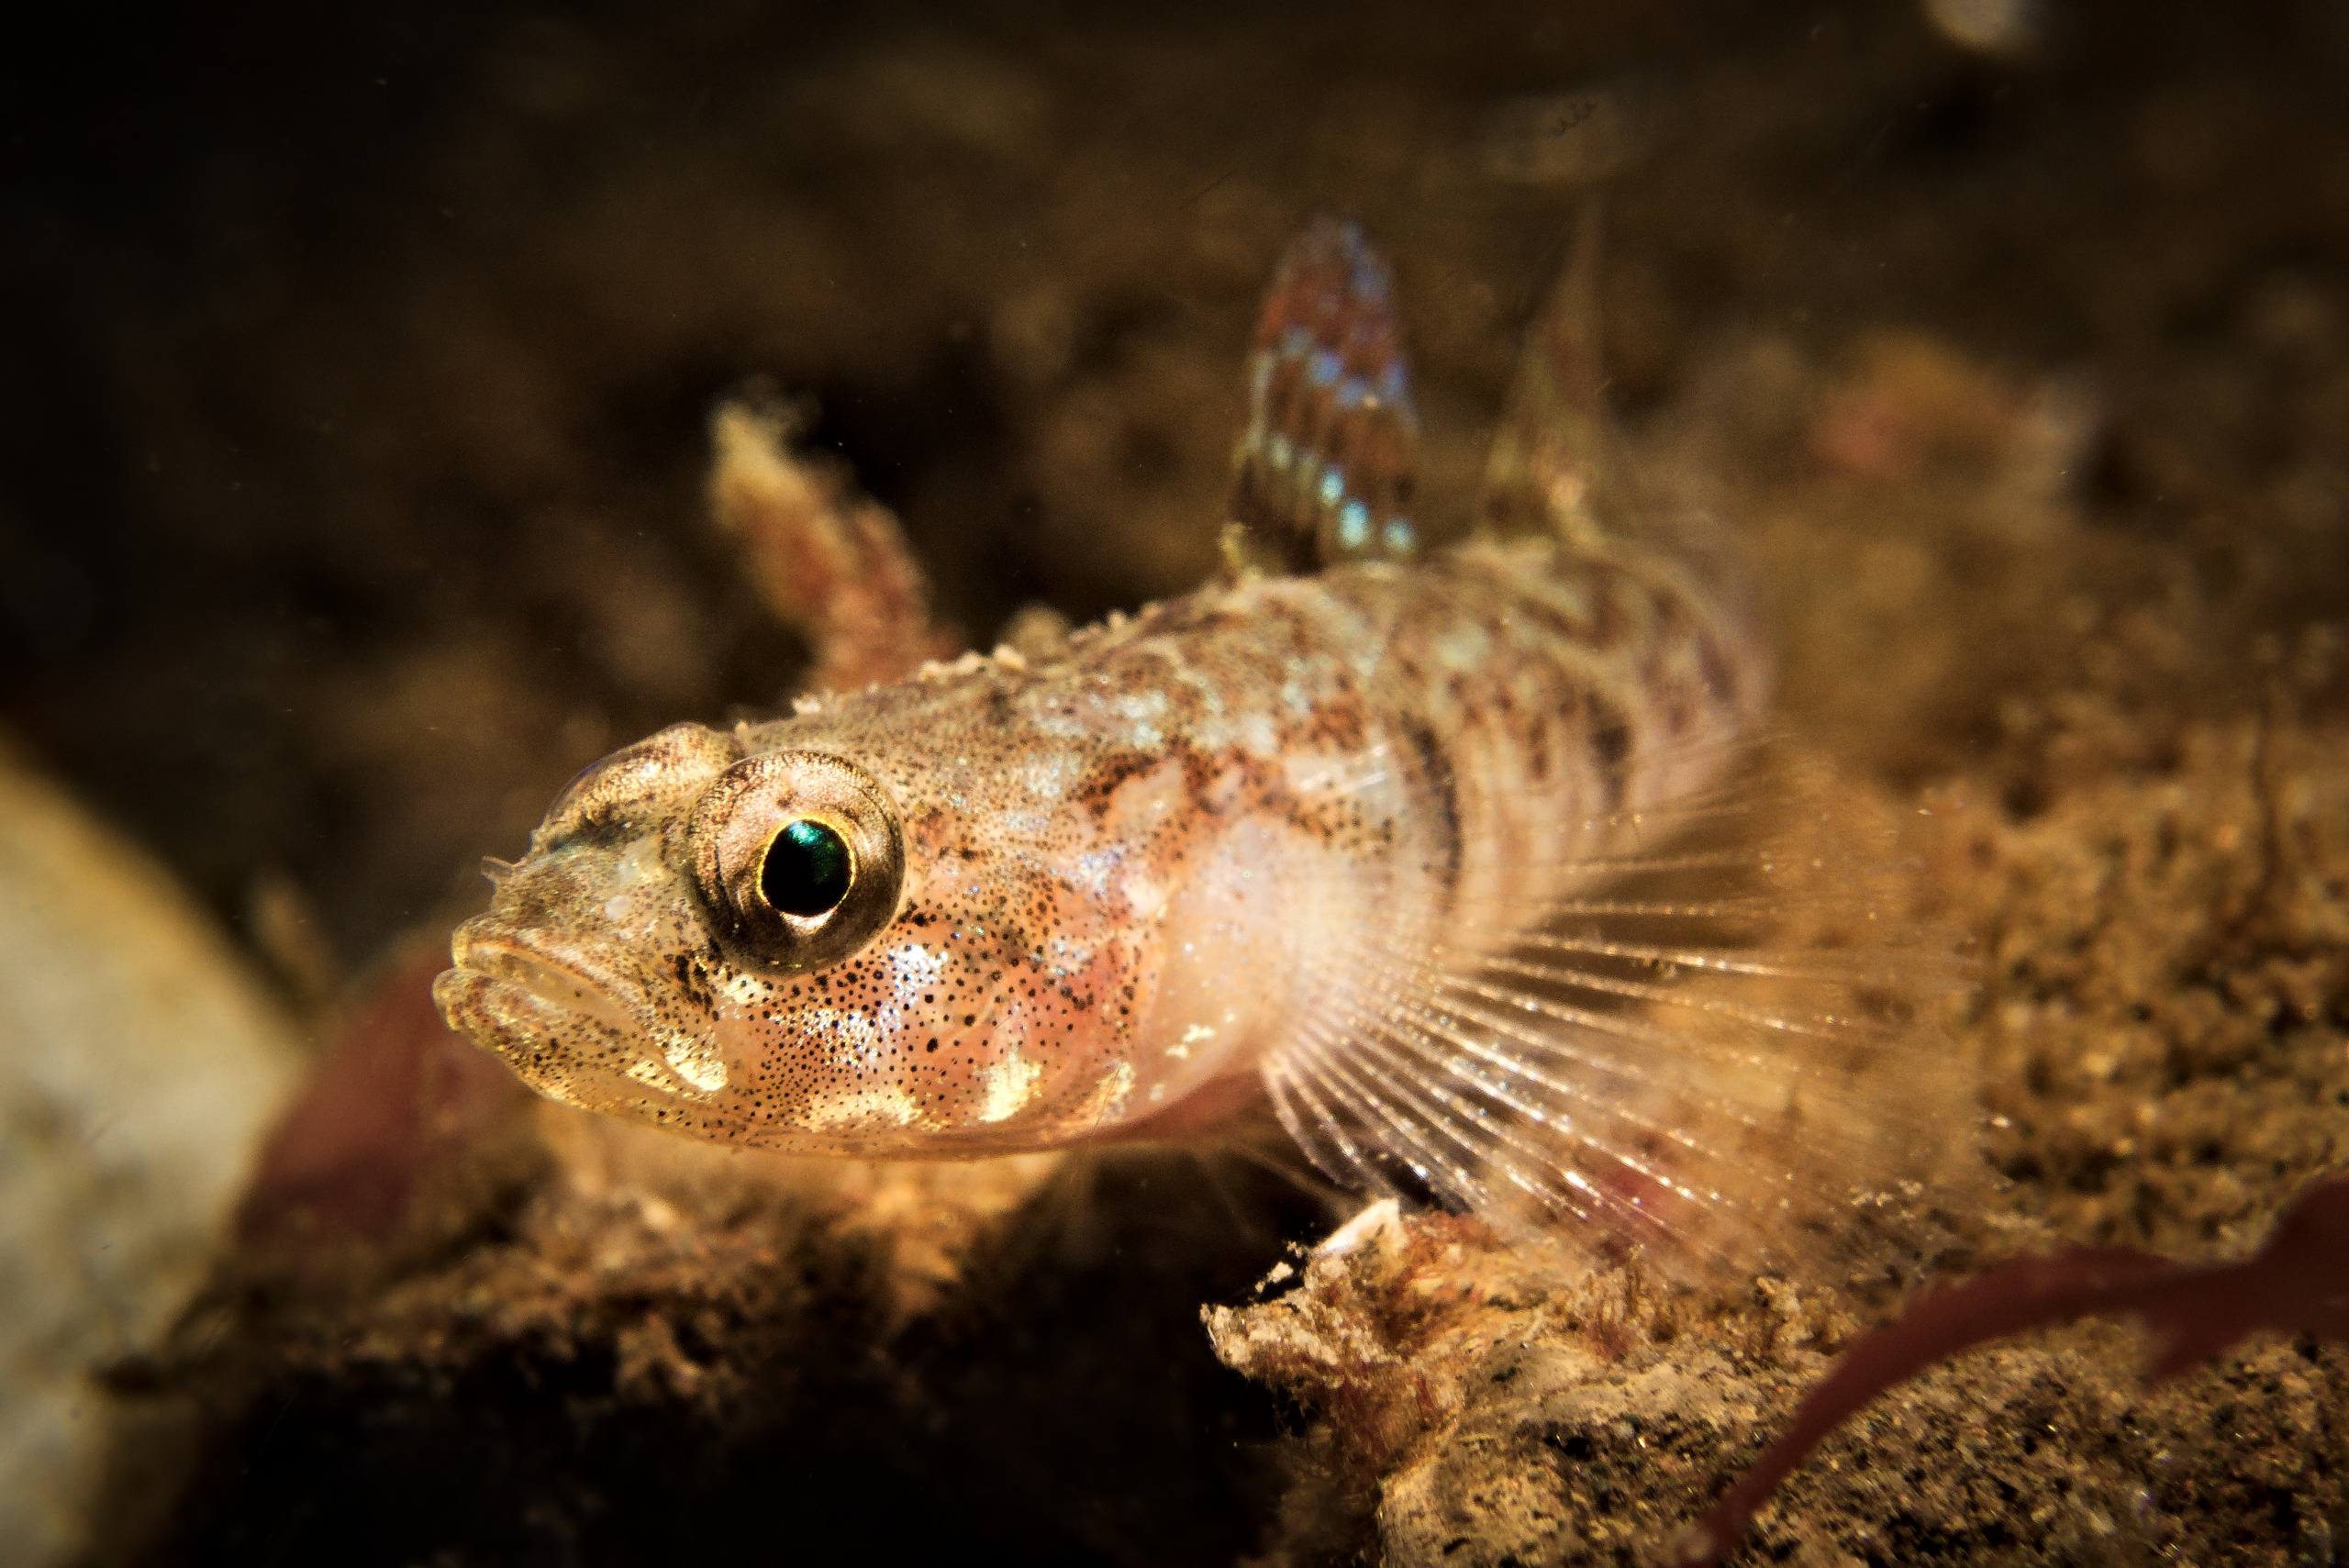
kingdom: Animalia
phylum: Chordata
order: Perciformes
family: Gobiidae
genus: Pomatoschistus
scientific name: Pomatoschistus pictus
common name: Spættet kutling
